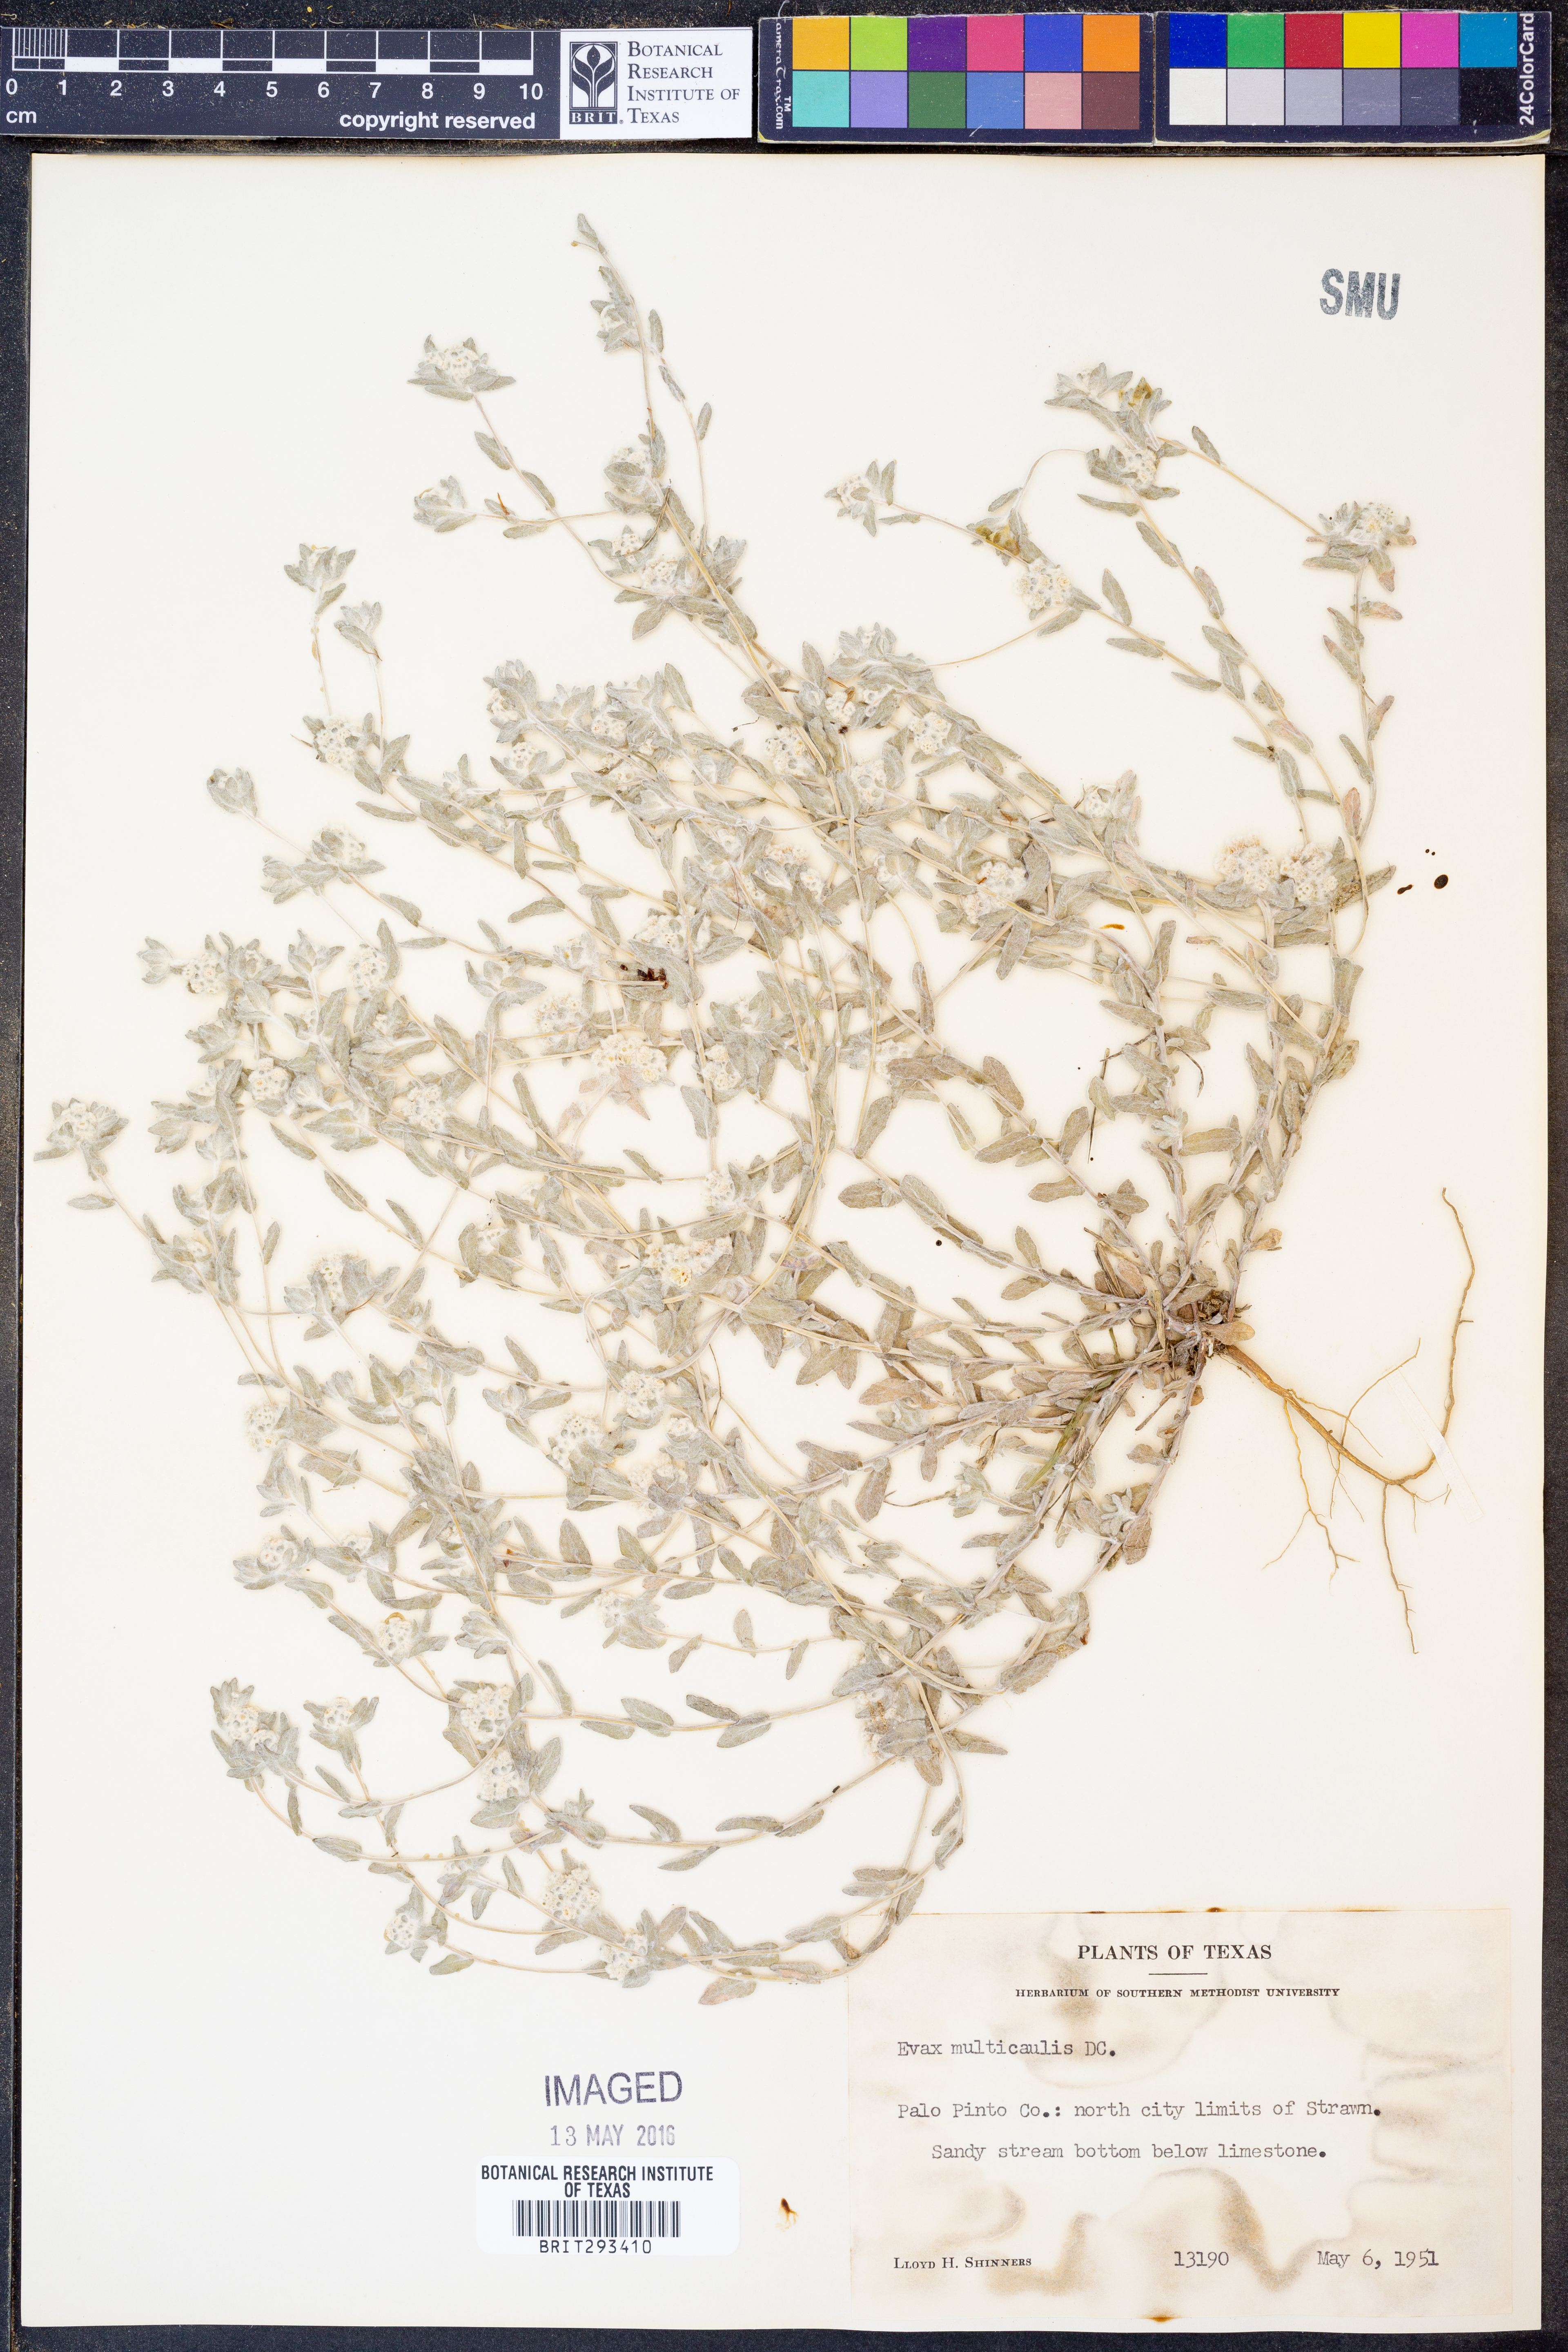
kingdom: Plantae
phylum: Tracheophyta
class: Magnoliopsida
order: Asterales
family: Asteraceae
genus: Diaperia
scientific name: Diaperia verna
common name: Many-stem rabbit-tobacco
